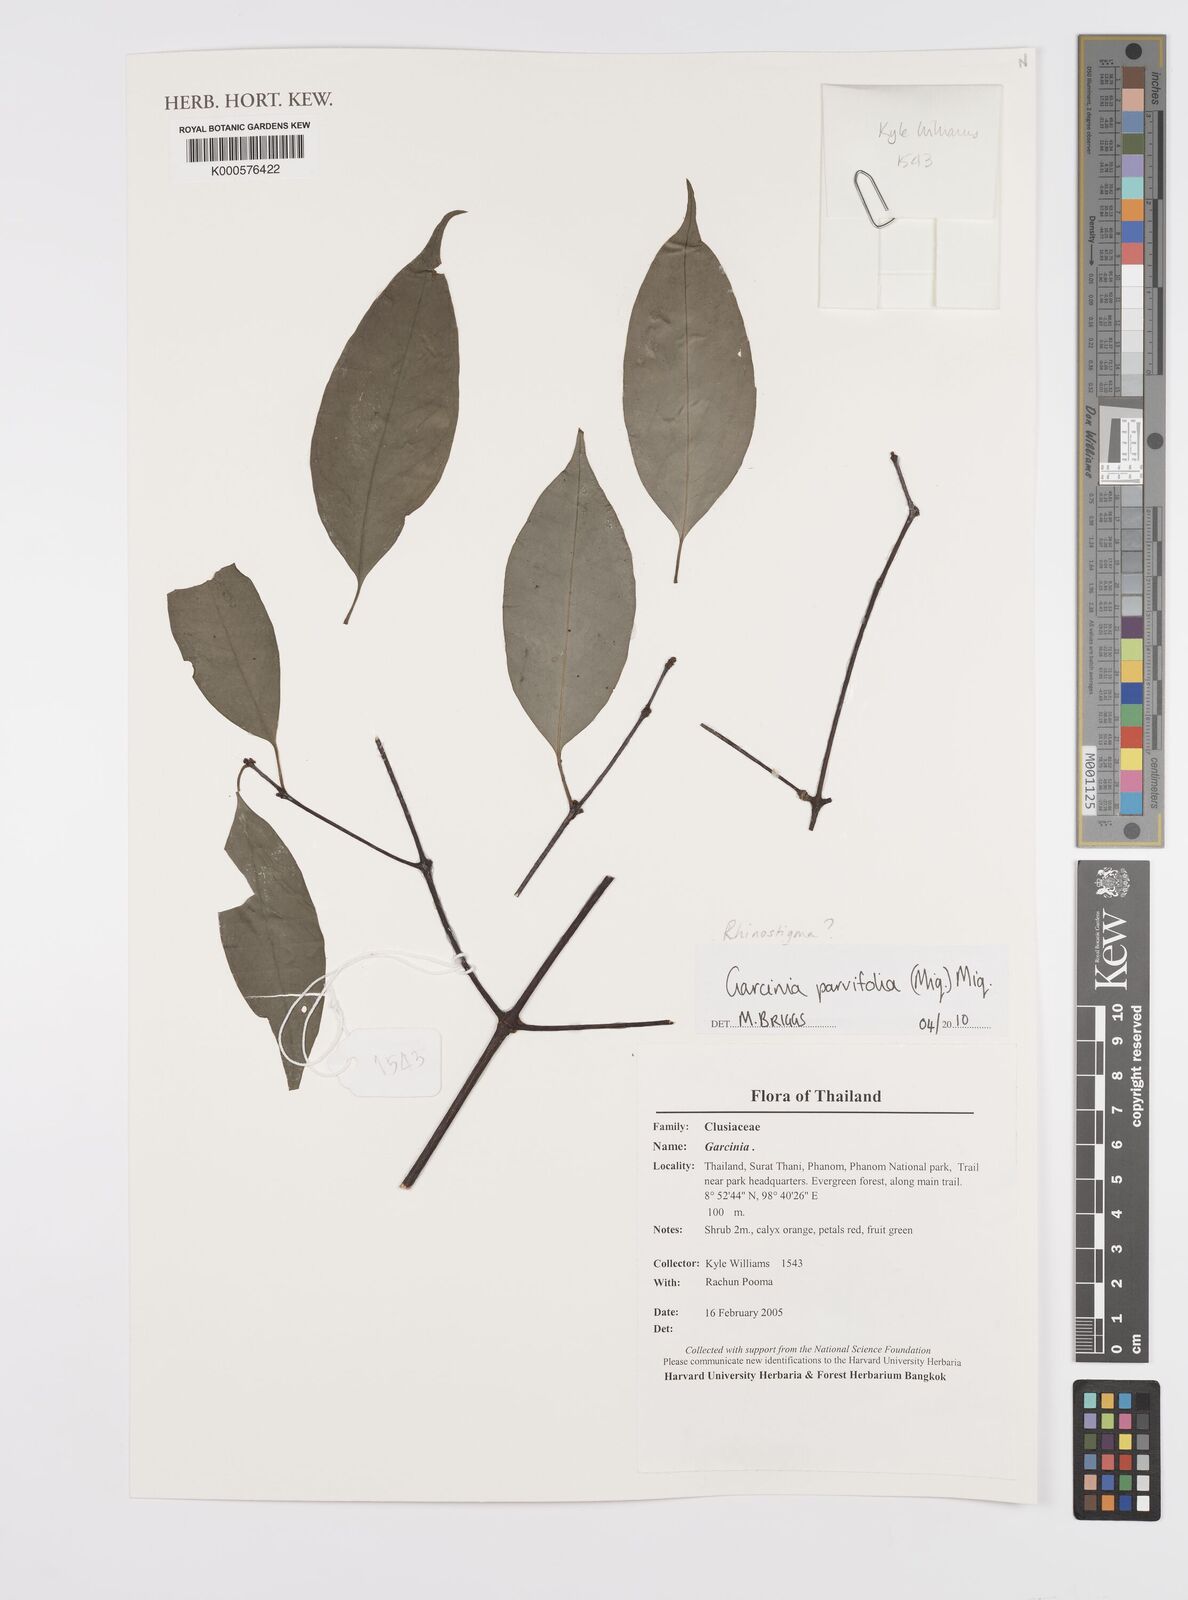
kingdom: Plantae
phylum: Tracheophyta
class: Magnoliopsida
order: Malpighiales
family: Clusiaceae
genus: Garcinia
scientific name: Garcinia parvifolia
